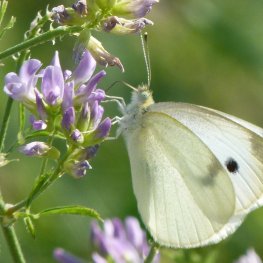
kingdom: Animalia
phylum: Arthropoda
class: Insecta
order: Lepidoptera
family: Pieridae
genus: Pieris
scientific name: Pieris rapae
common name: Cabbage White
